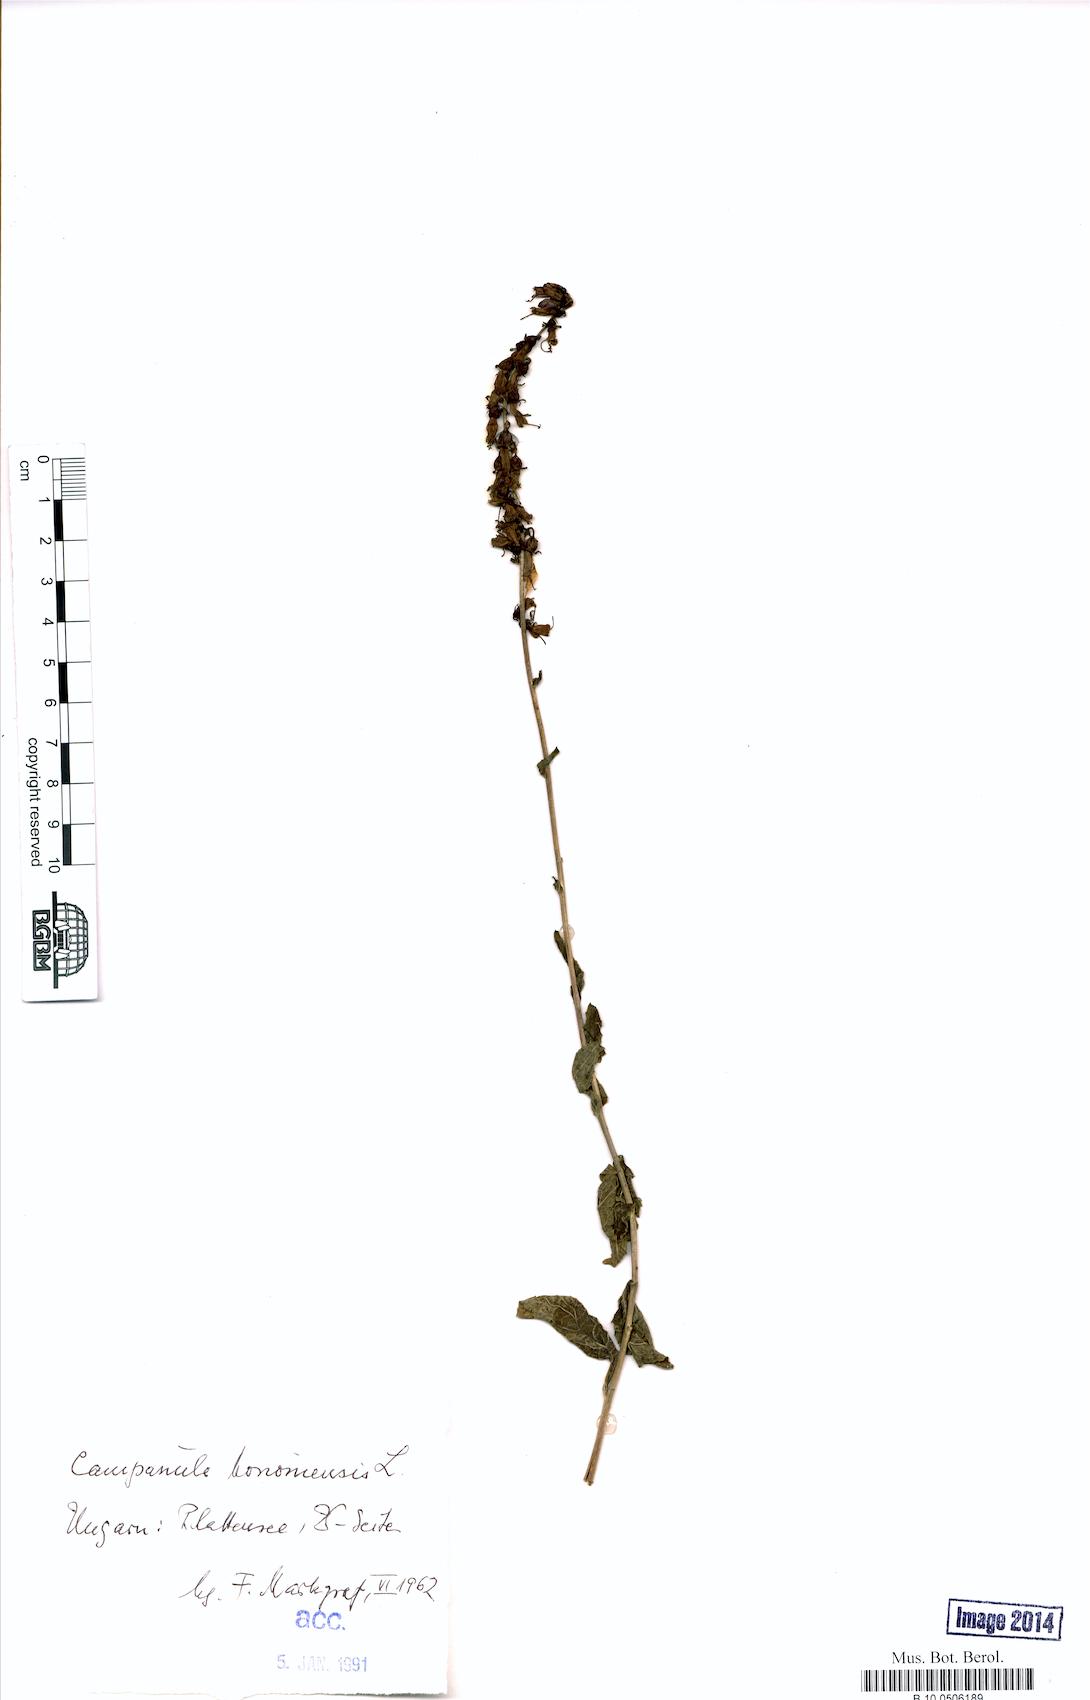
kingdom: Plantae
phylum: Tracheophyta
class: Magnoliopsida
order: Asterales
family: Campanulaceae
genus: Campanula
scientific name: Campanula bononiensis
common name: Pale bellflower
